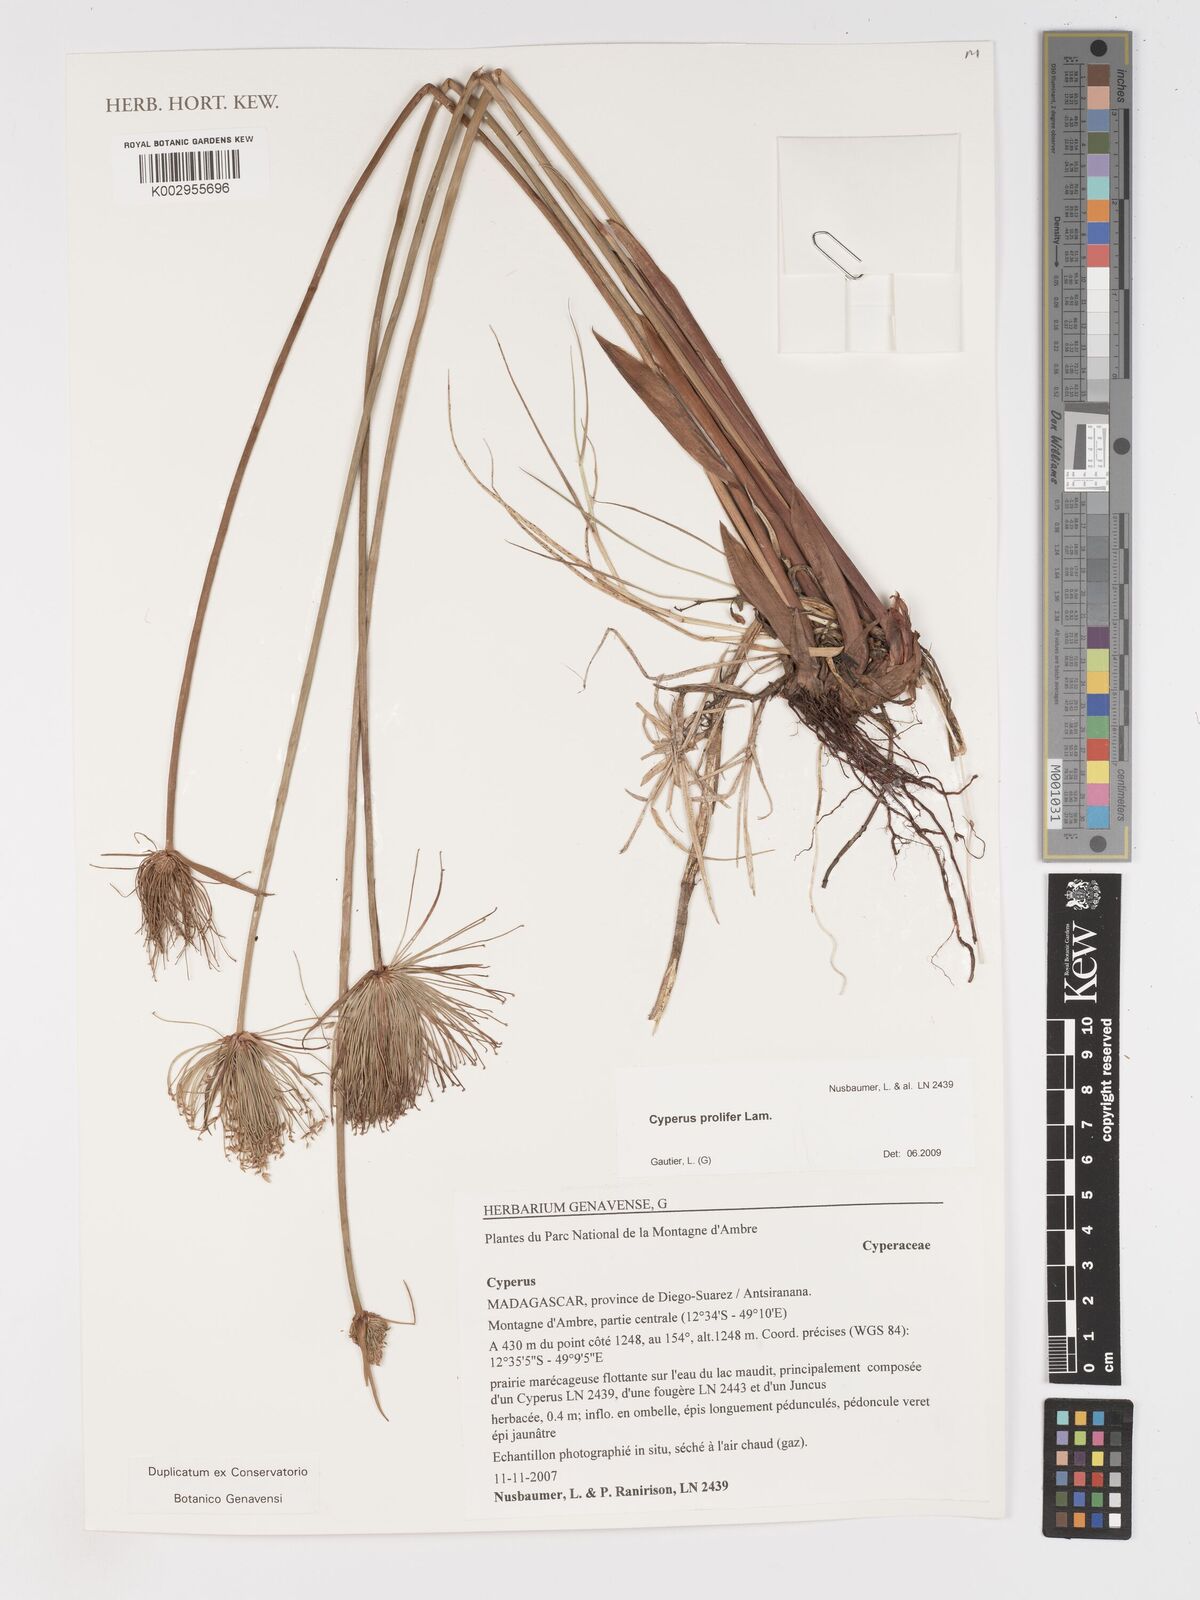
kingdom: Plantae
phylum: Tracheophyta
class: Liliopsida
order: Poales
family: Cyperaceae
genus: Cyperus
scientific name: Cyperus prolifer
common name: Miniature flatsedge
